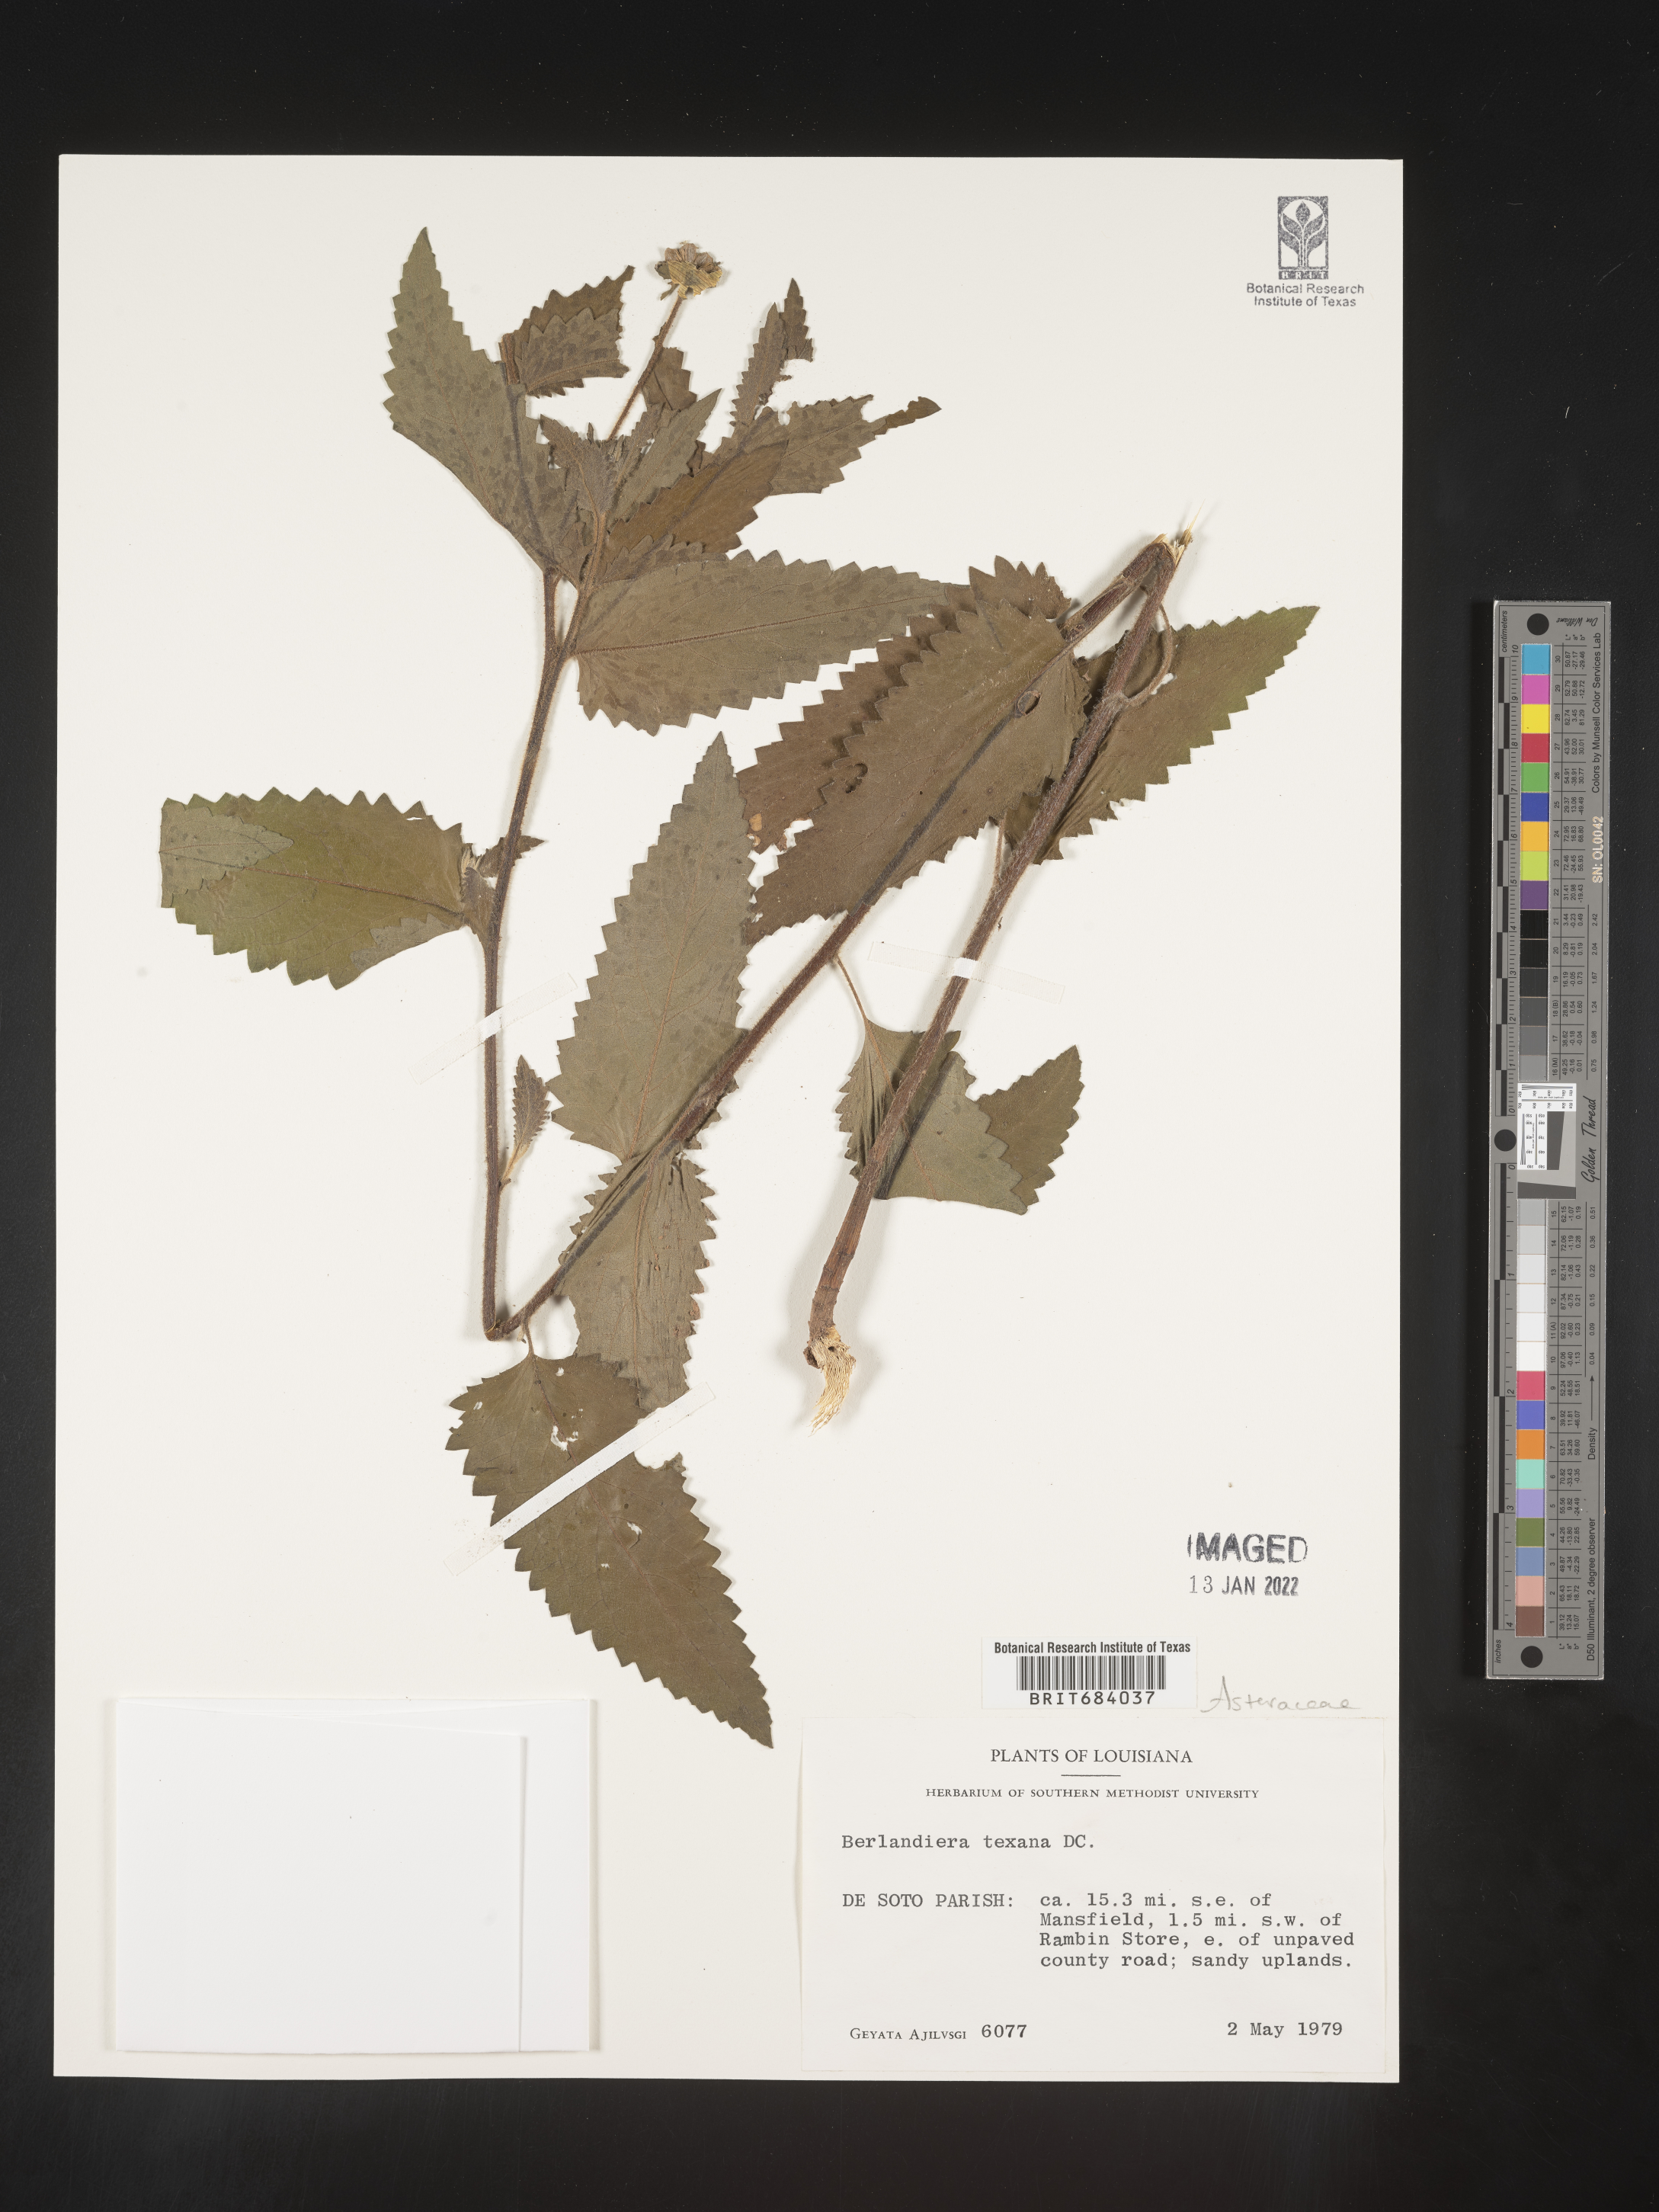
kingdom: Plantae
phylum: Tracheophyta
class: Magnoliopsida
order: Asterales
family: Asteraceae
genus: Berlandiera
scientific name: Berlandiera texana
